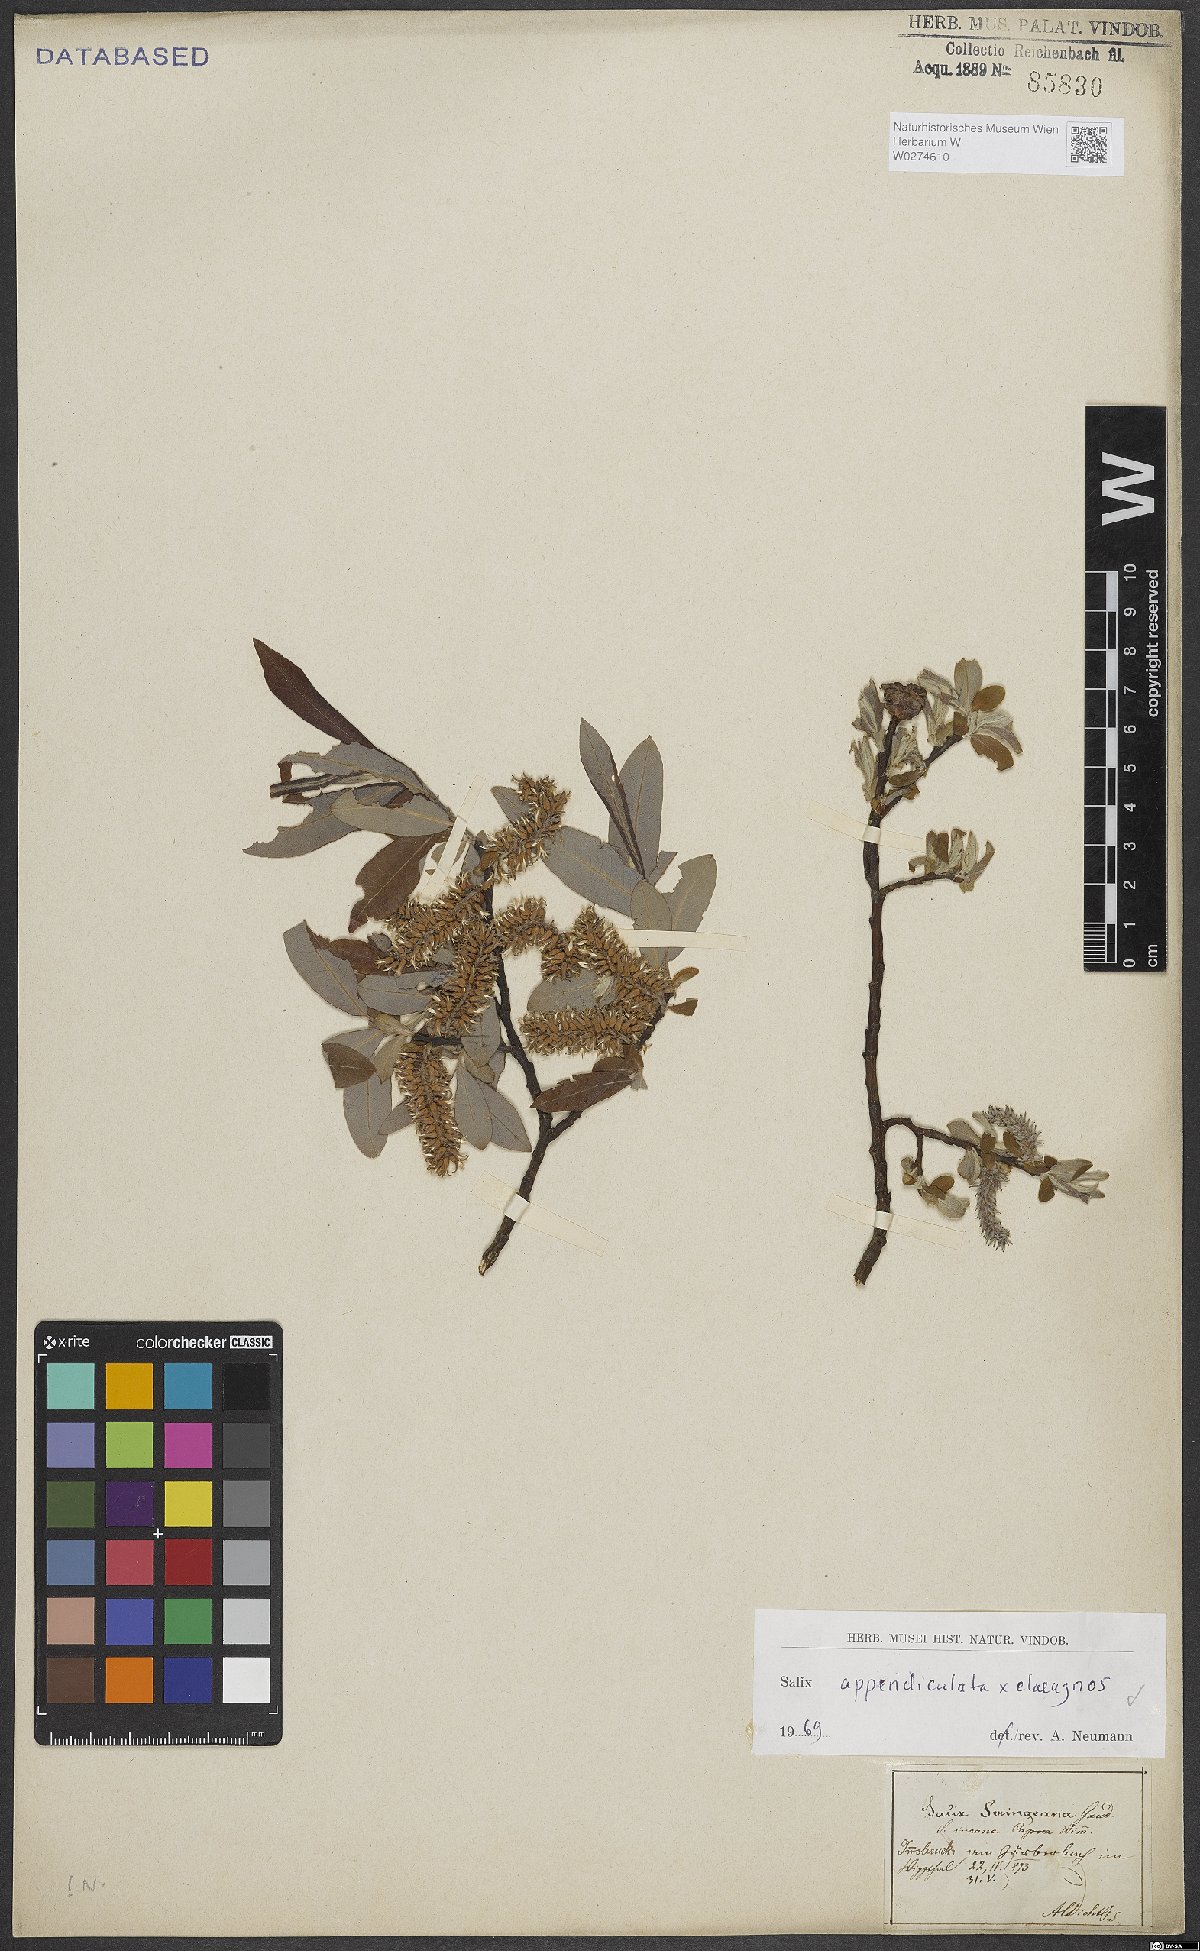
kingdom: Plantae
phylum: Tracheophyta
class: Magnoliopsida
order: Malpighiales
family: Salicaceae
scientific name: Salicaceae
